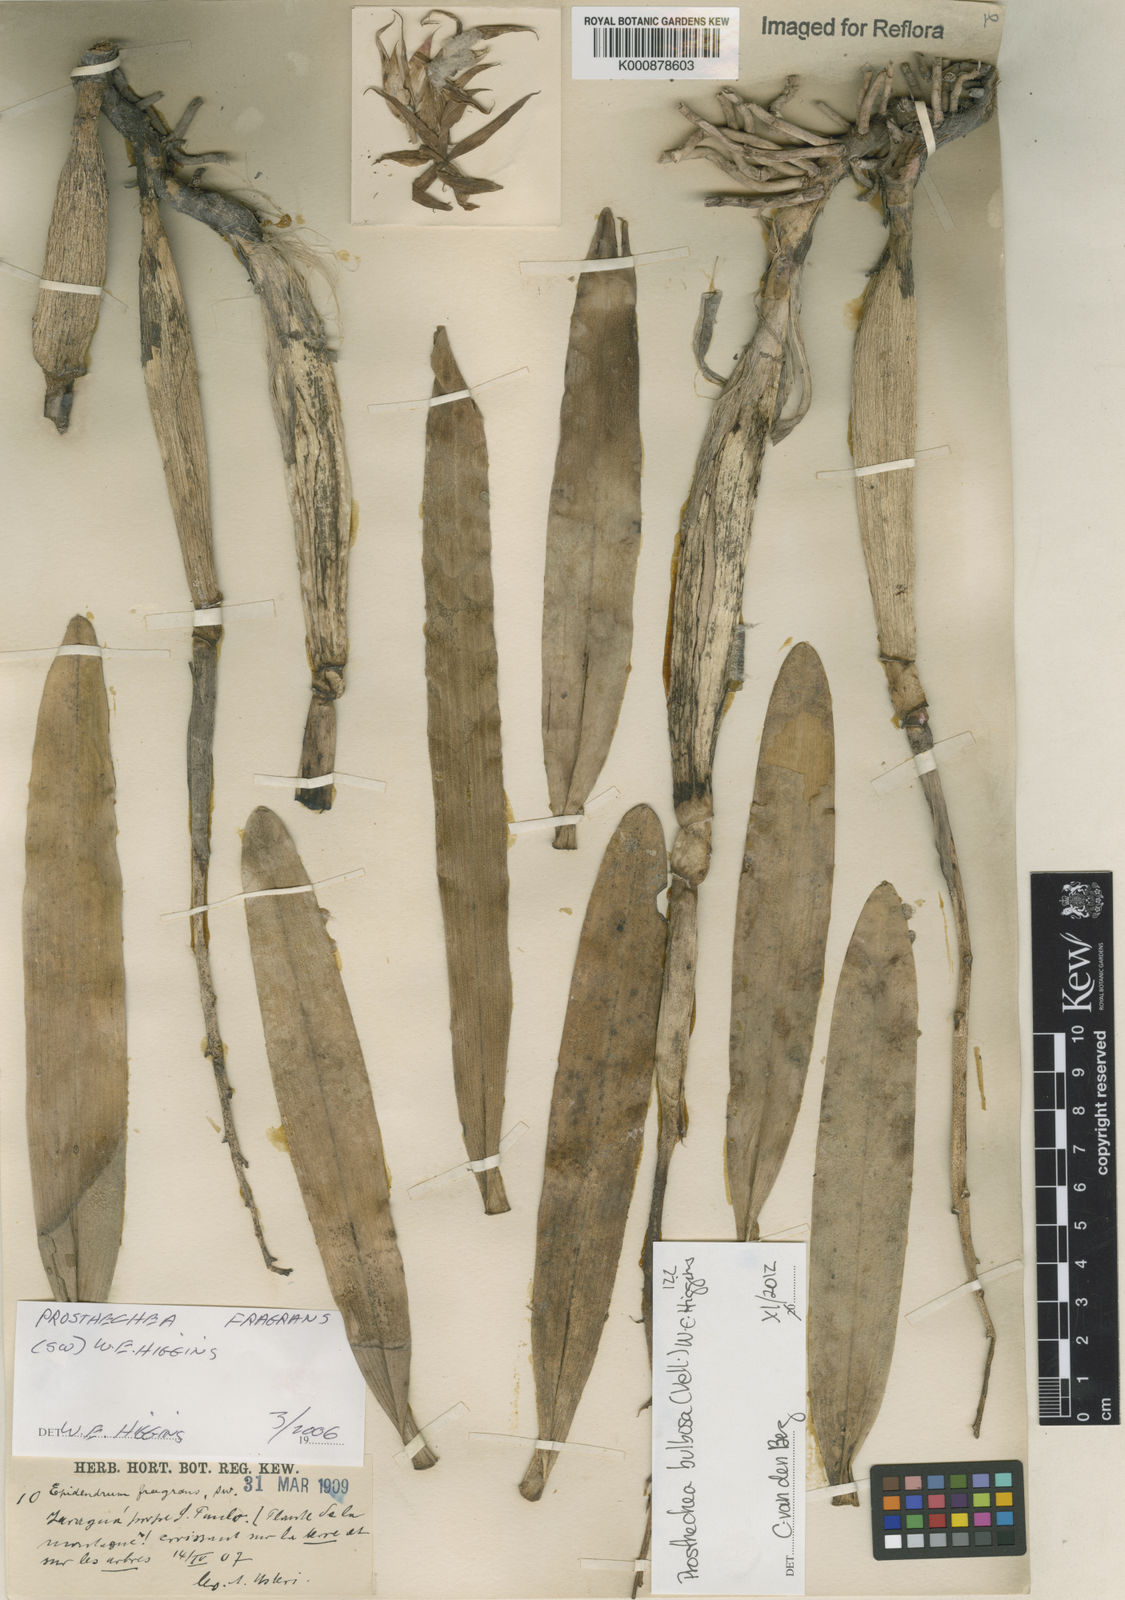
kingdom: Plantae
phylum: Tracheophyta
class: Liliopsida
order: Asparagales
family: Orchidaceae
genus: Prosthechea
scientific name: Prosthechea bulbosa
